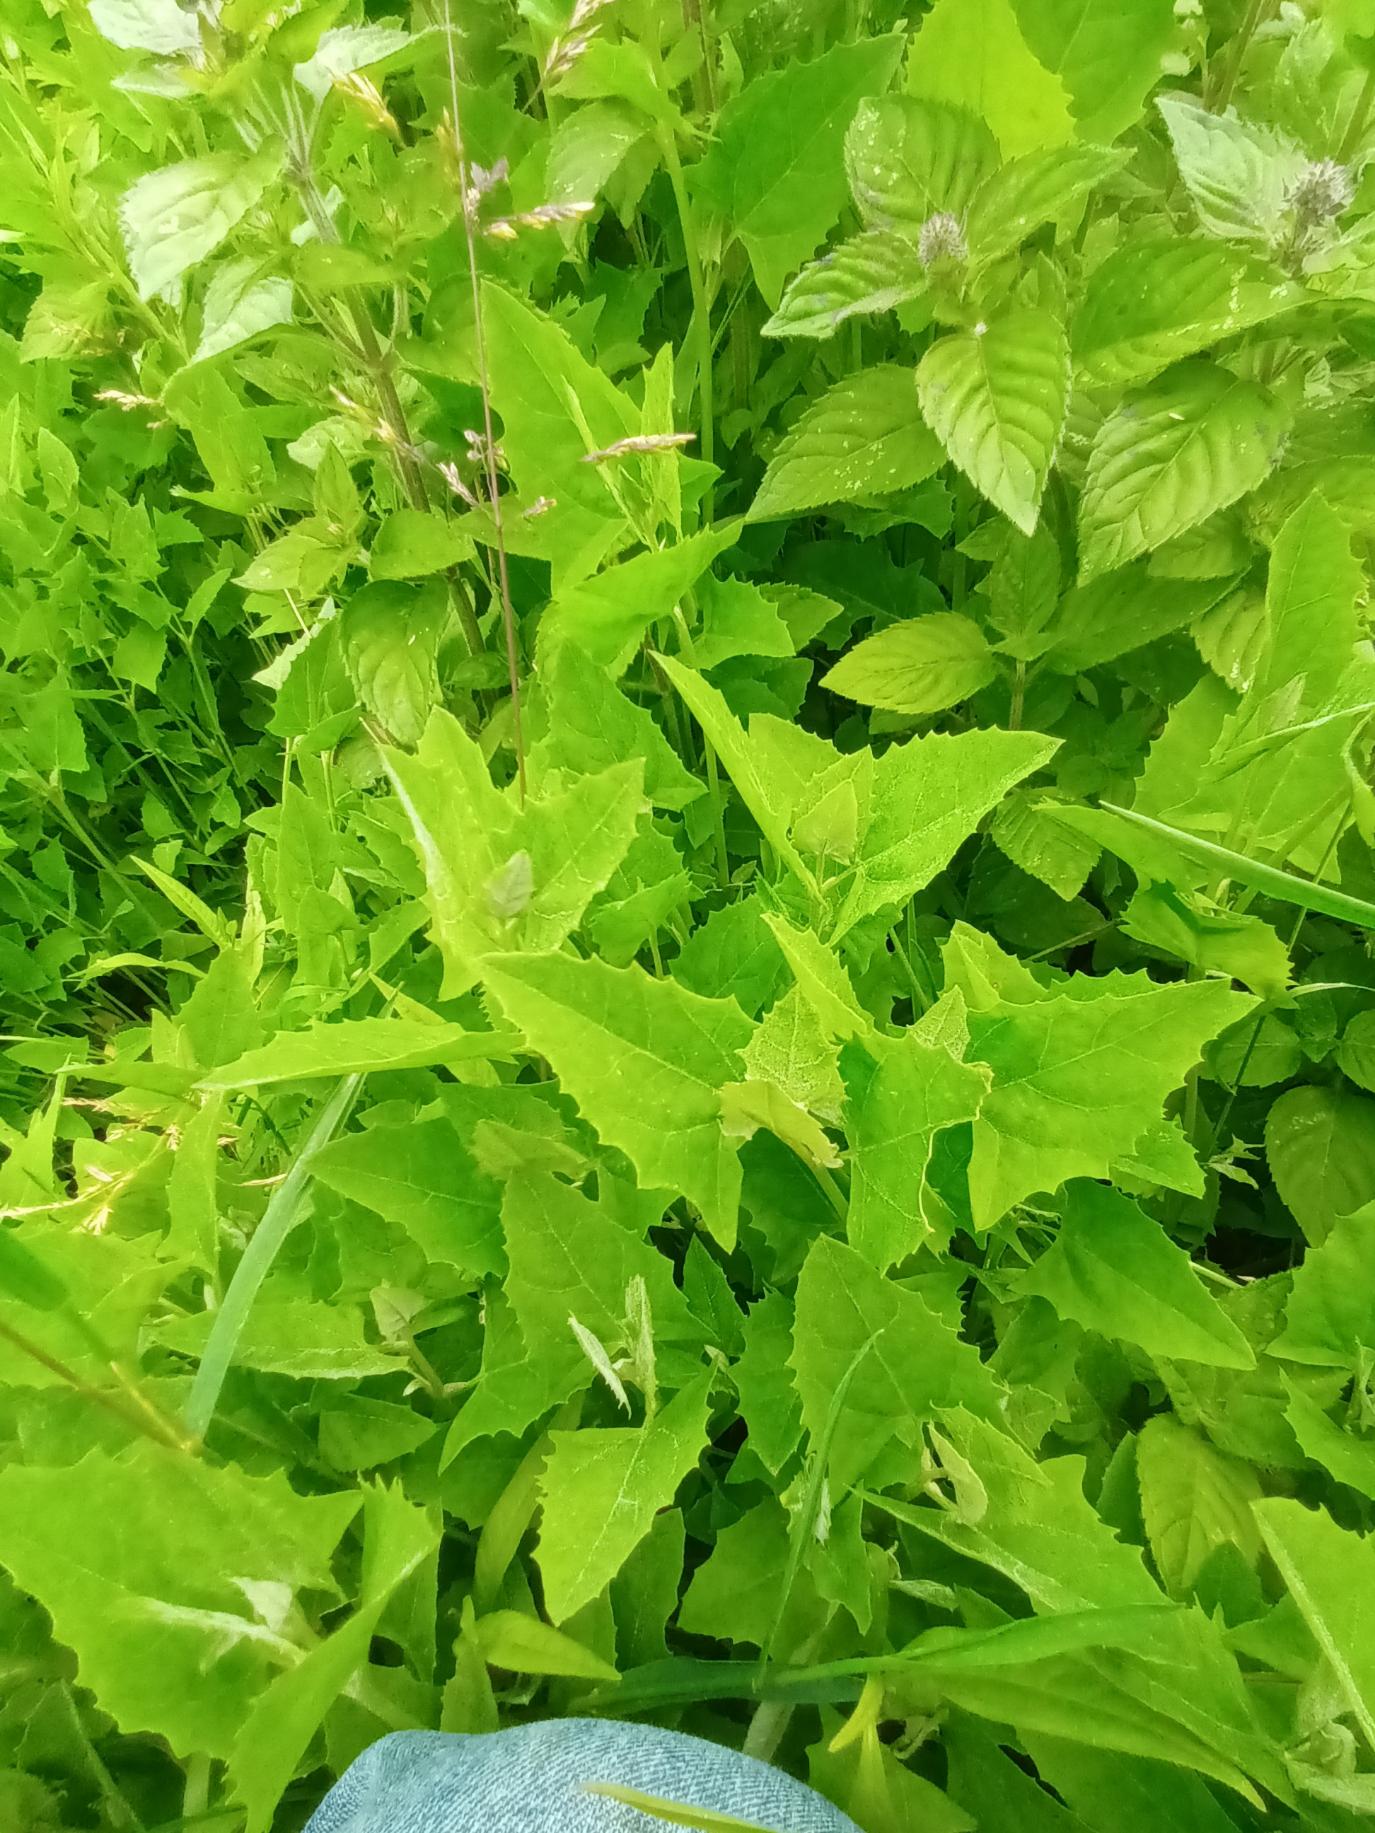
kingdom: Plantae
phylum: Tracheophyta
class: Magnoliopsida
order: Caryophyllales
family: Amaranthaceae
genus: Atriplex
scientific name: Atriplex prostrata
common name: Spyd-mælde
